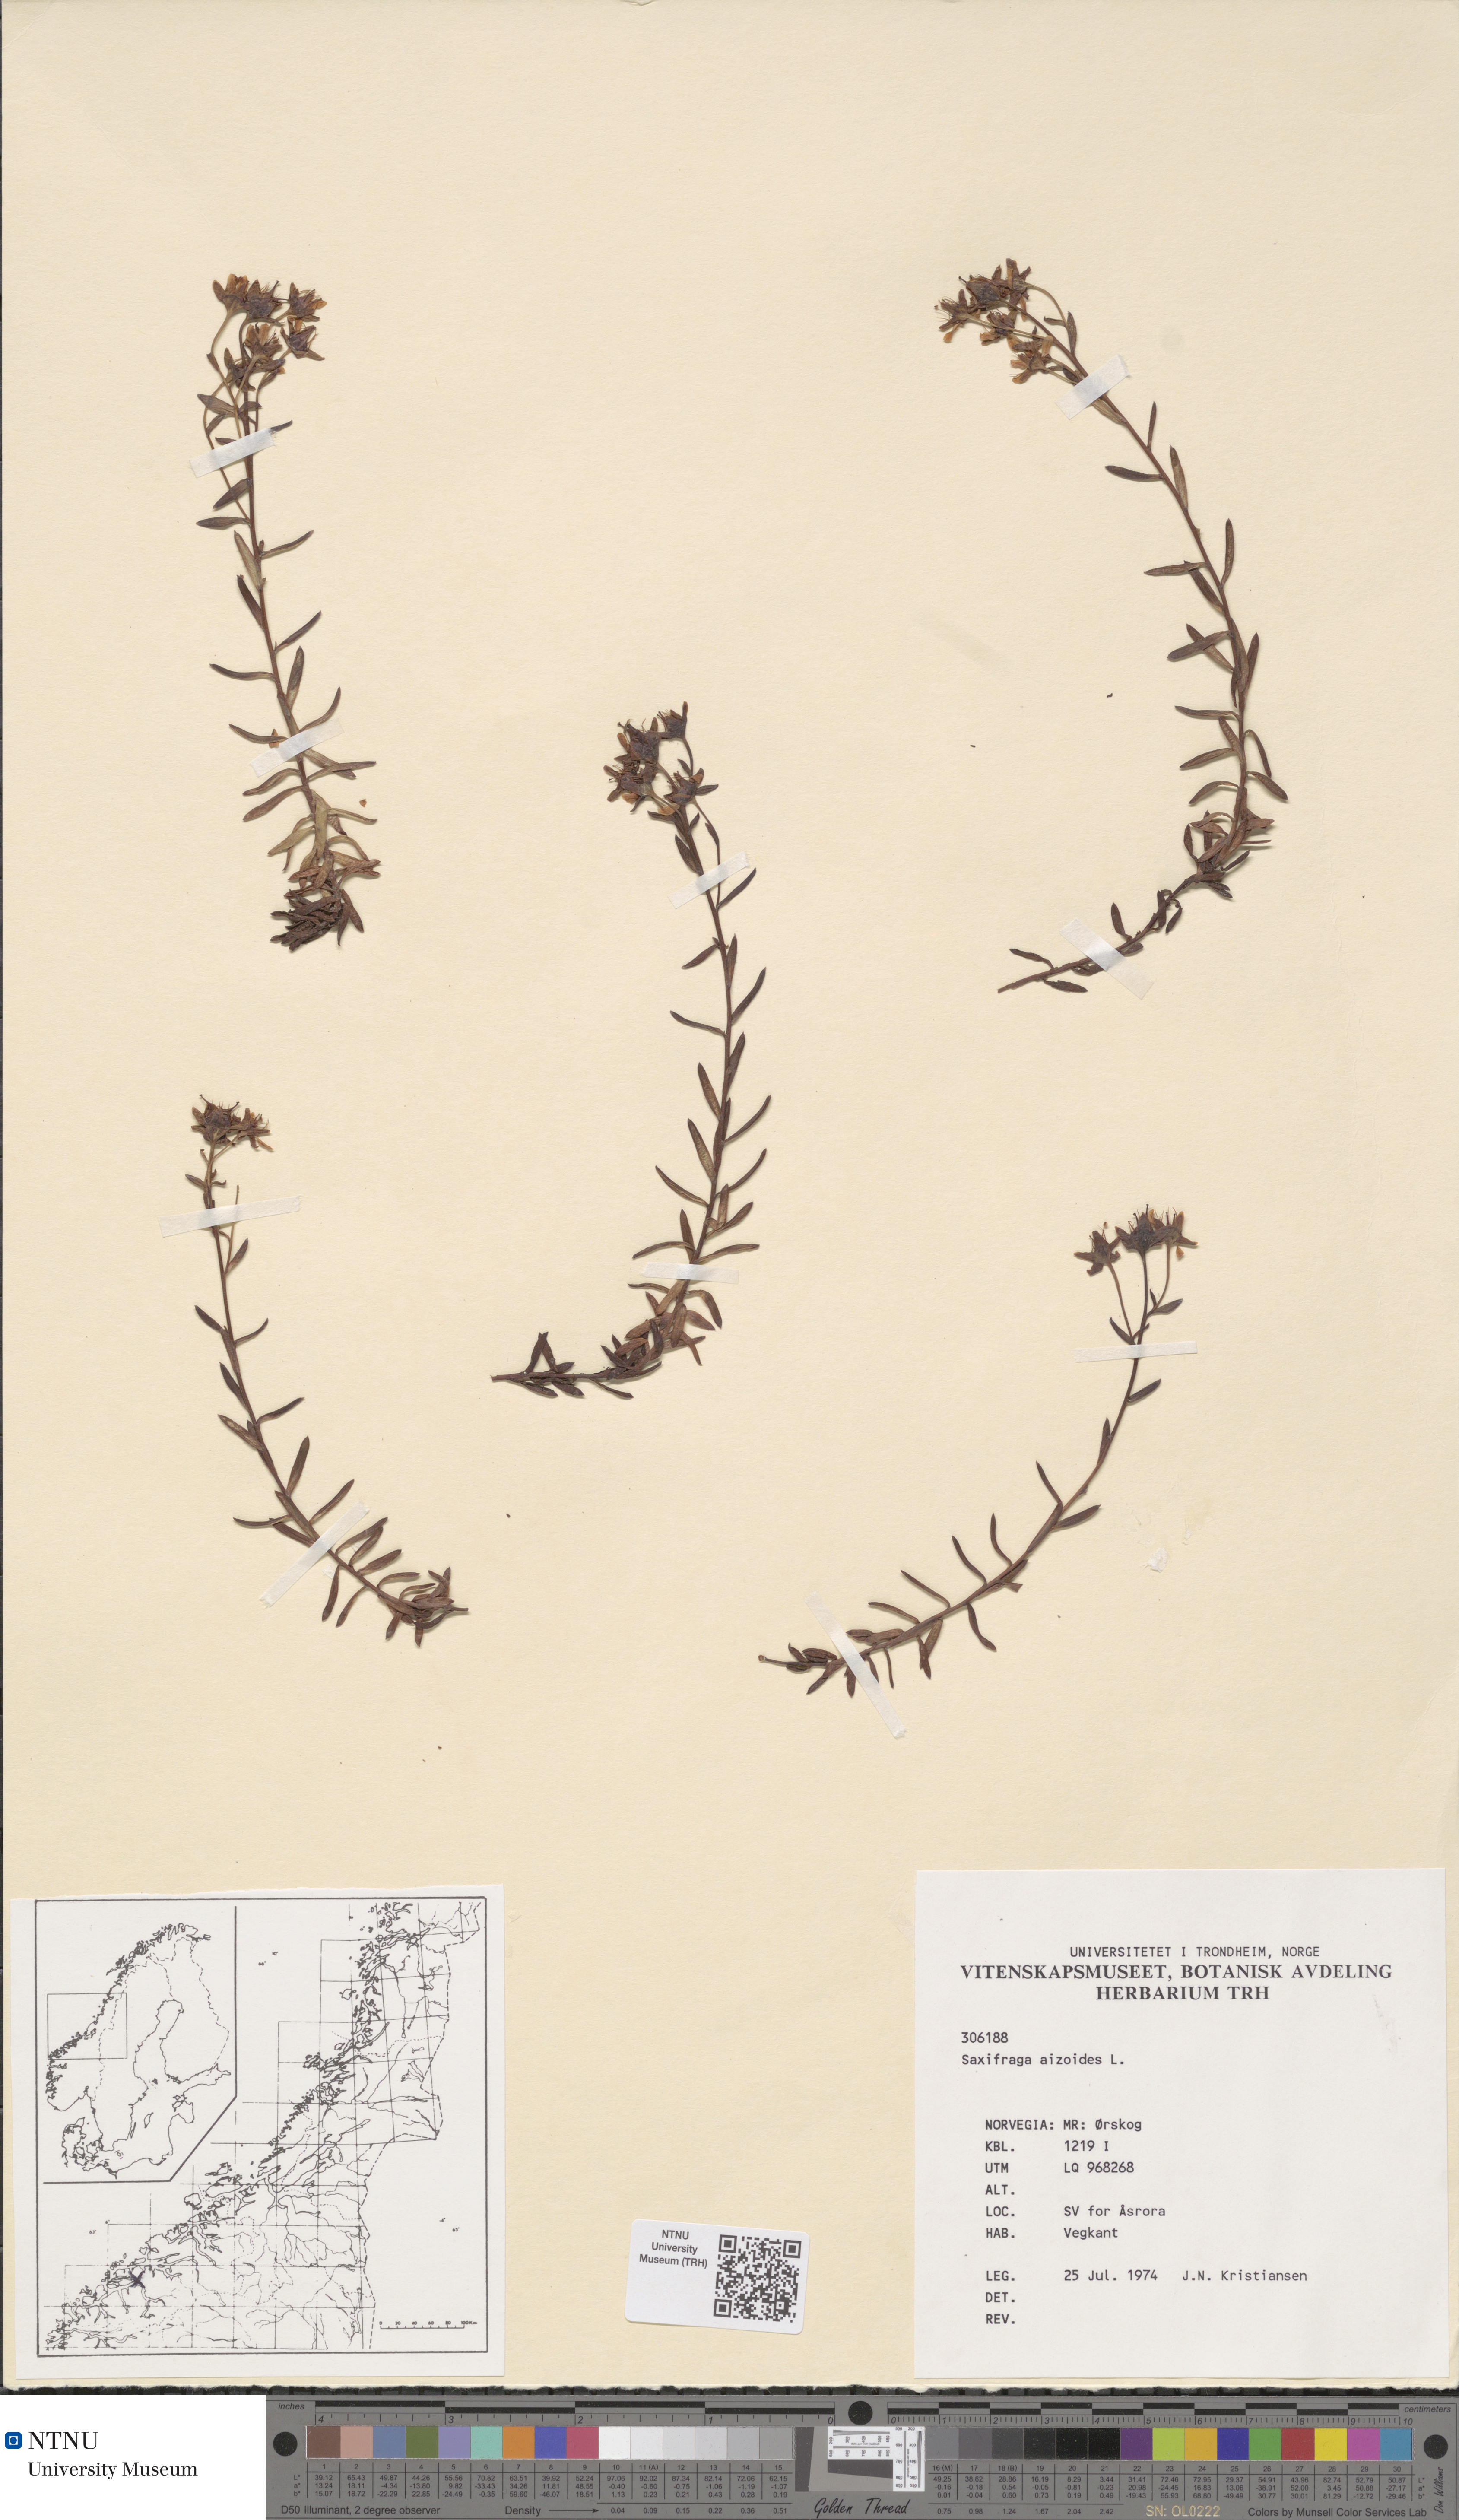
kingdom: Plantae
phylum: Tracheophyta
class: Magnoliopsida
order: Saxifragales
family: Saxifragaceae
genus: Saxifraga
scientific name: Saxifraga aizoides
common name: Yellow mountain saxifrage
